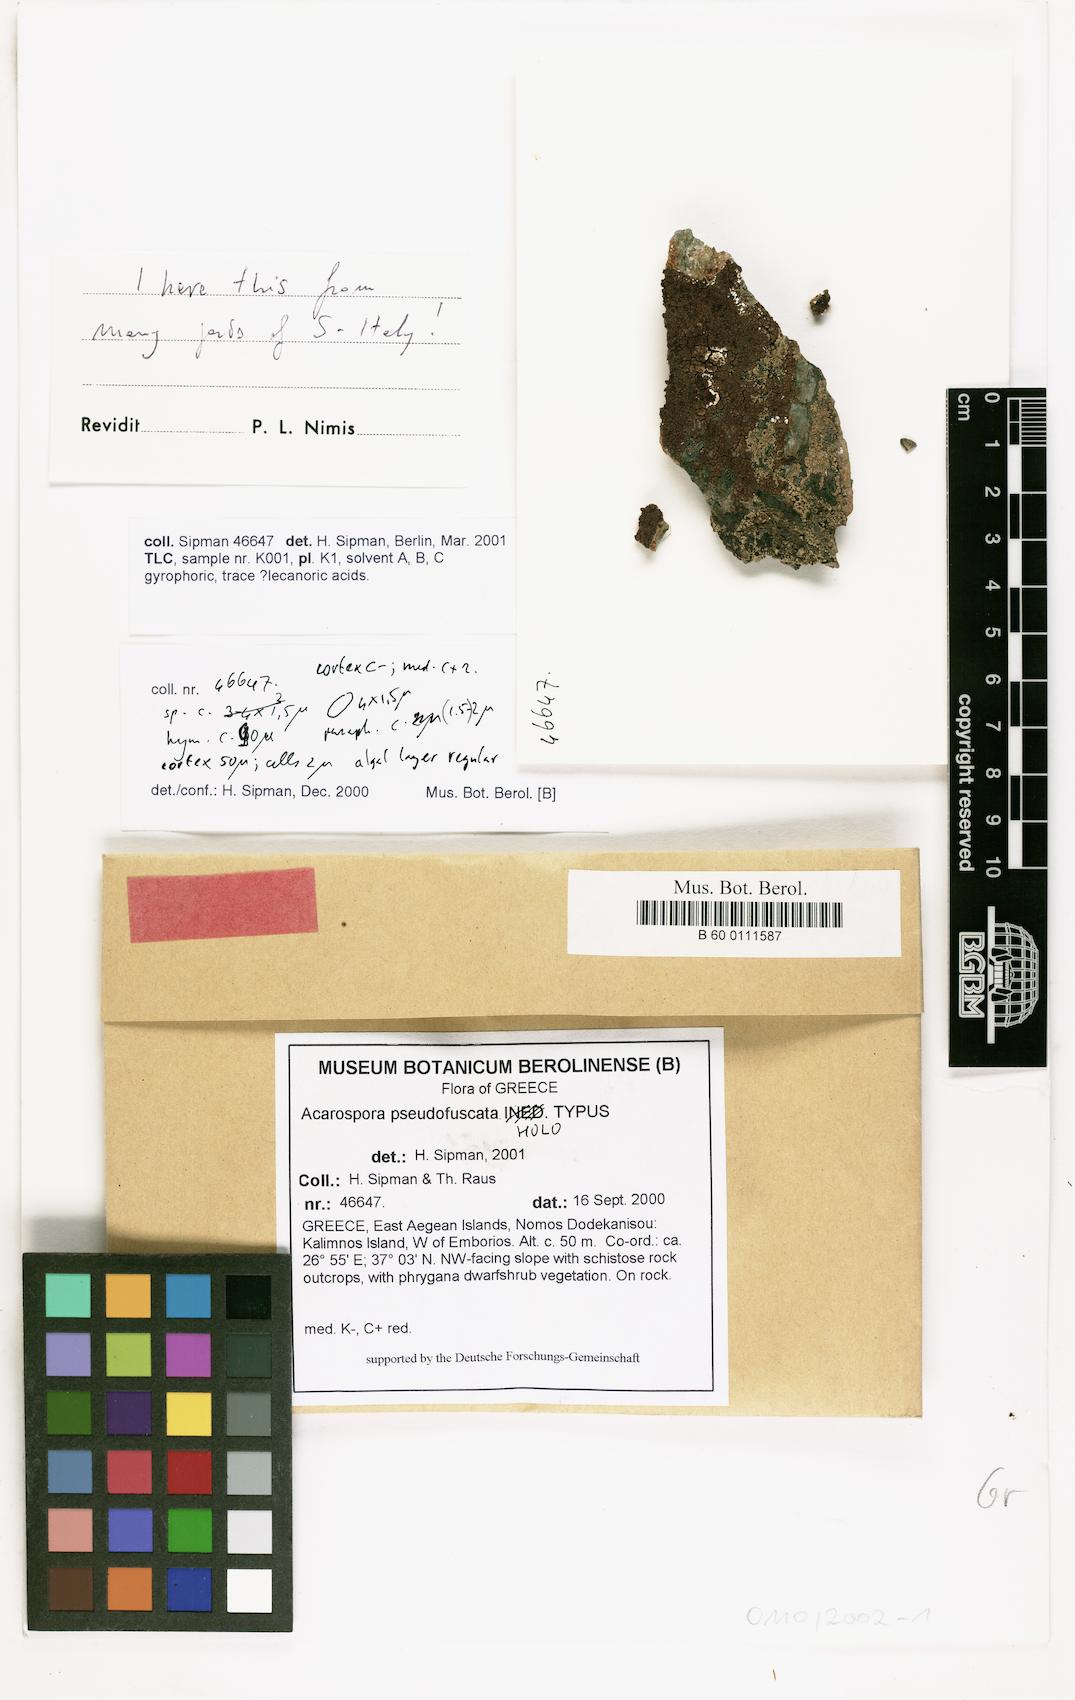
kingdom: Fungi
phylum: Ascomycota
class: Lecanoromycetes
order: Acarosporales
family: Acarosporaceae
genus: Acarospora
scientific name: Acarospora pseudofuscata
